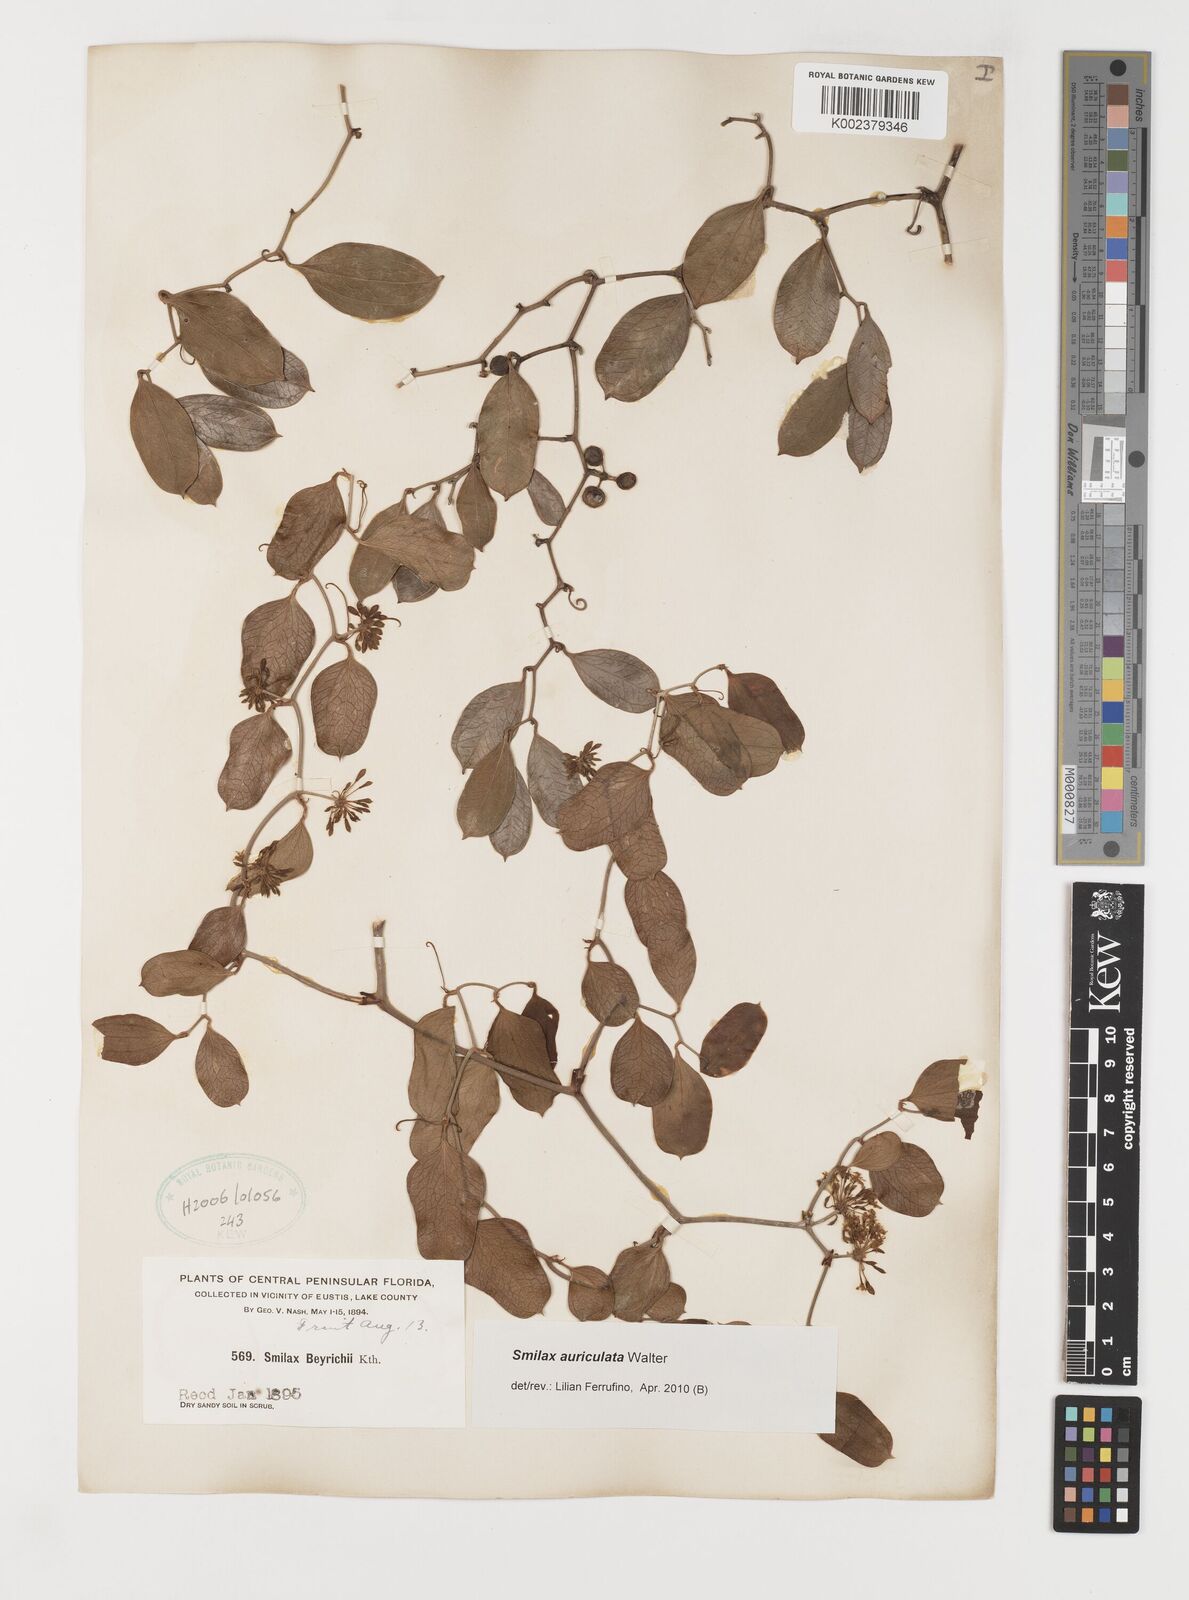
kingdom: Plantae
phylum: Tracheophyta
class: Liliopsida
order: Liliales
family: Smilacaceae
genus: Smilax
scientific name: Smilax auriculata
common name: Wild bamboo
